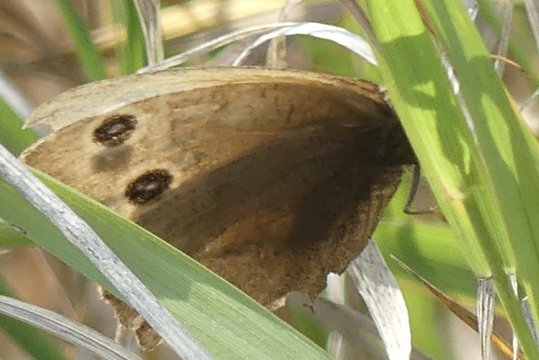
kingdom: Animalia
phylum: Arthropoda
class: Insecta
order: Lepidoptera
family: Nymphalidae
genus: Cercyonis
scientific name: Cercyonis pegala
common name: Common Wood-Nymph
